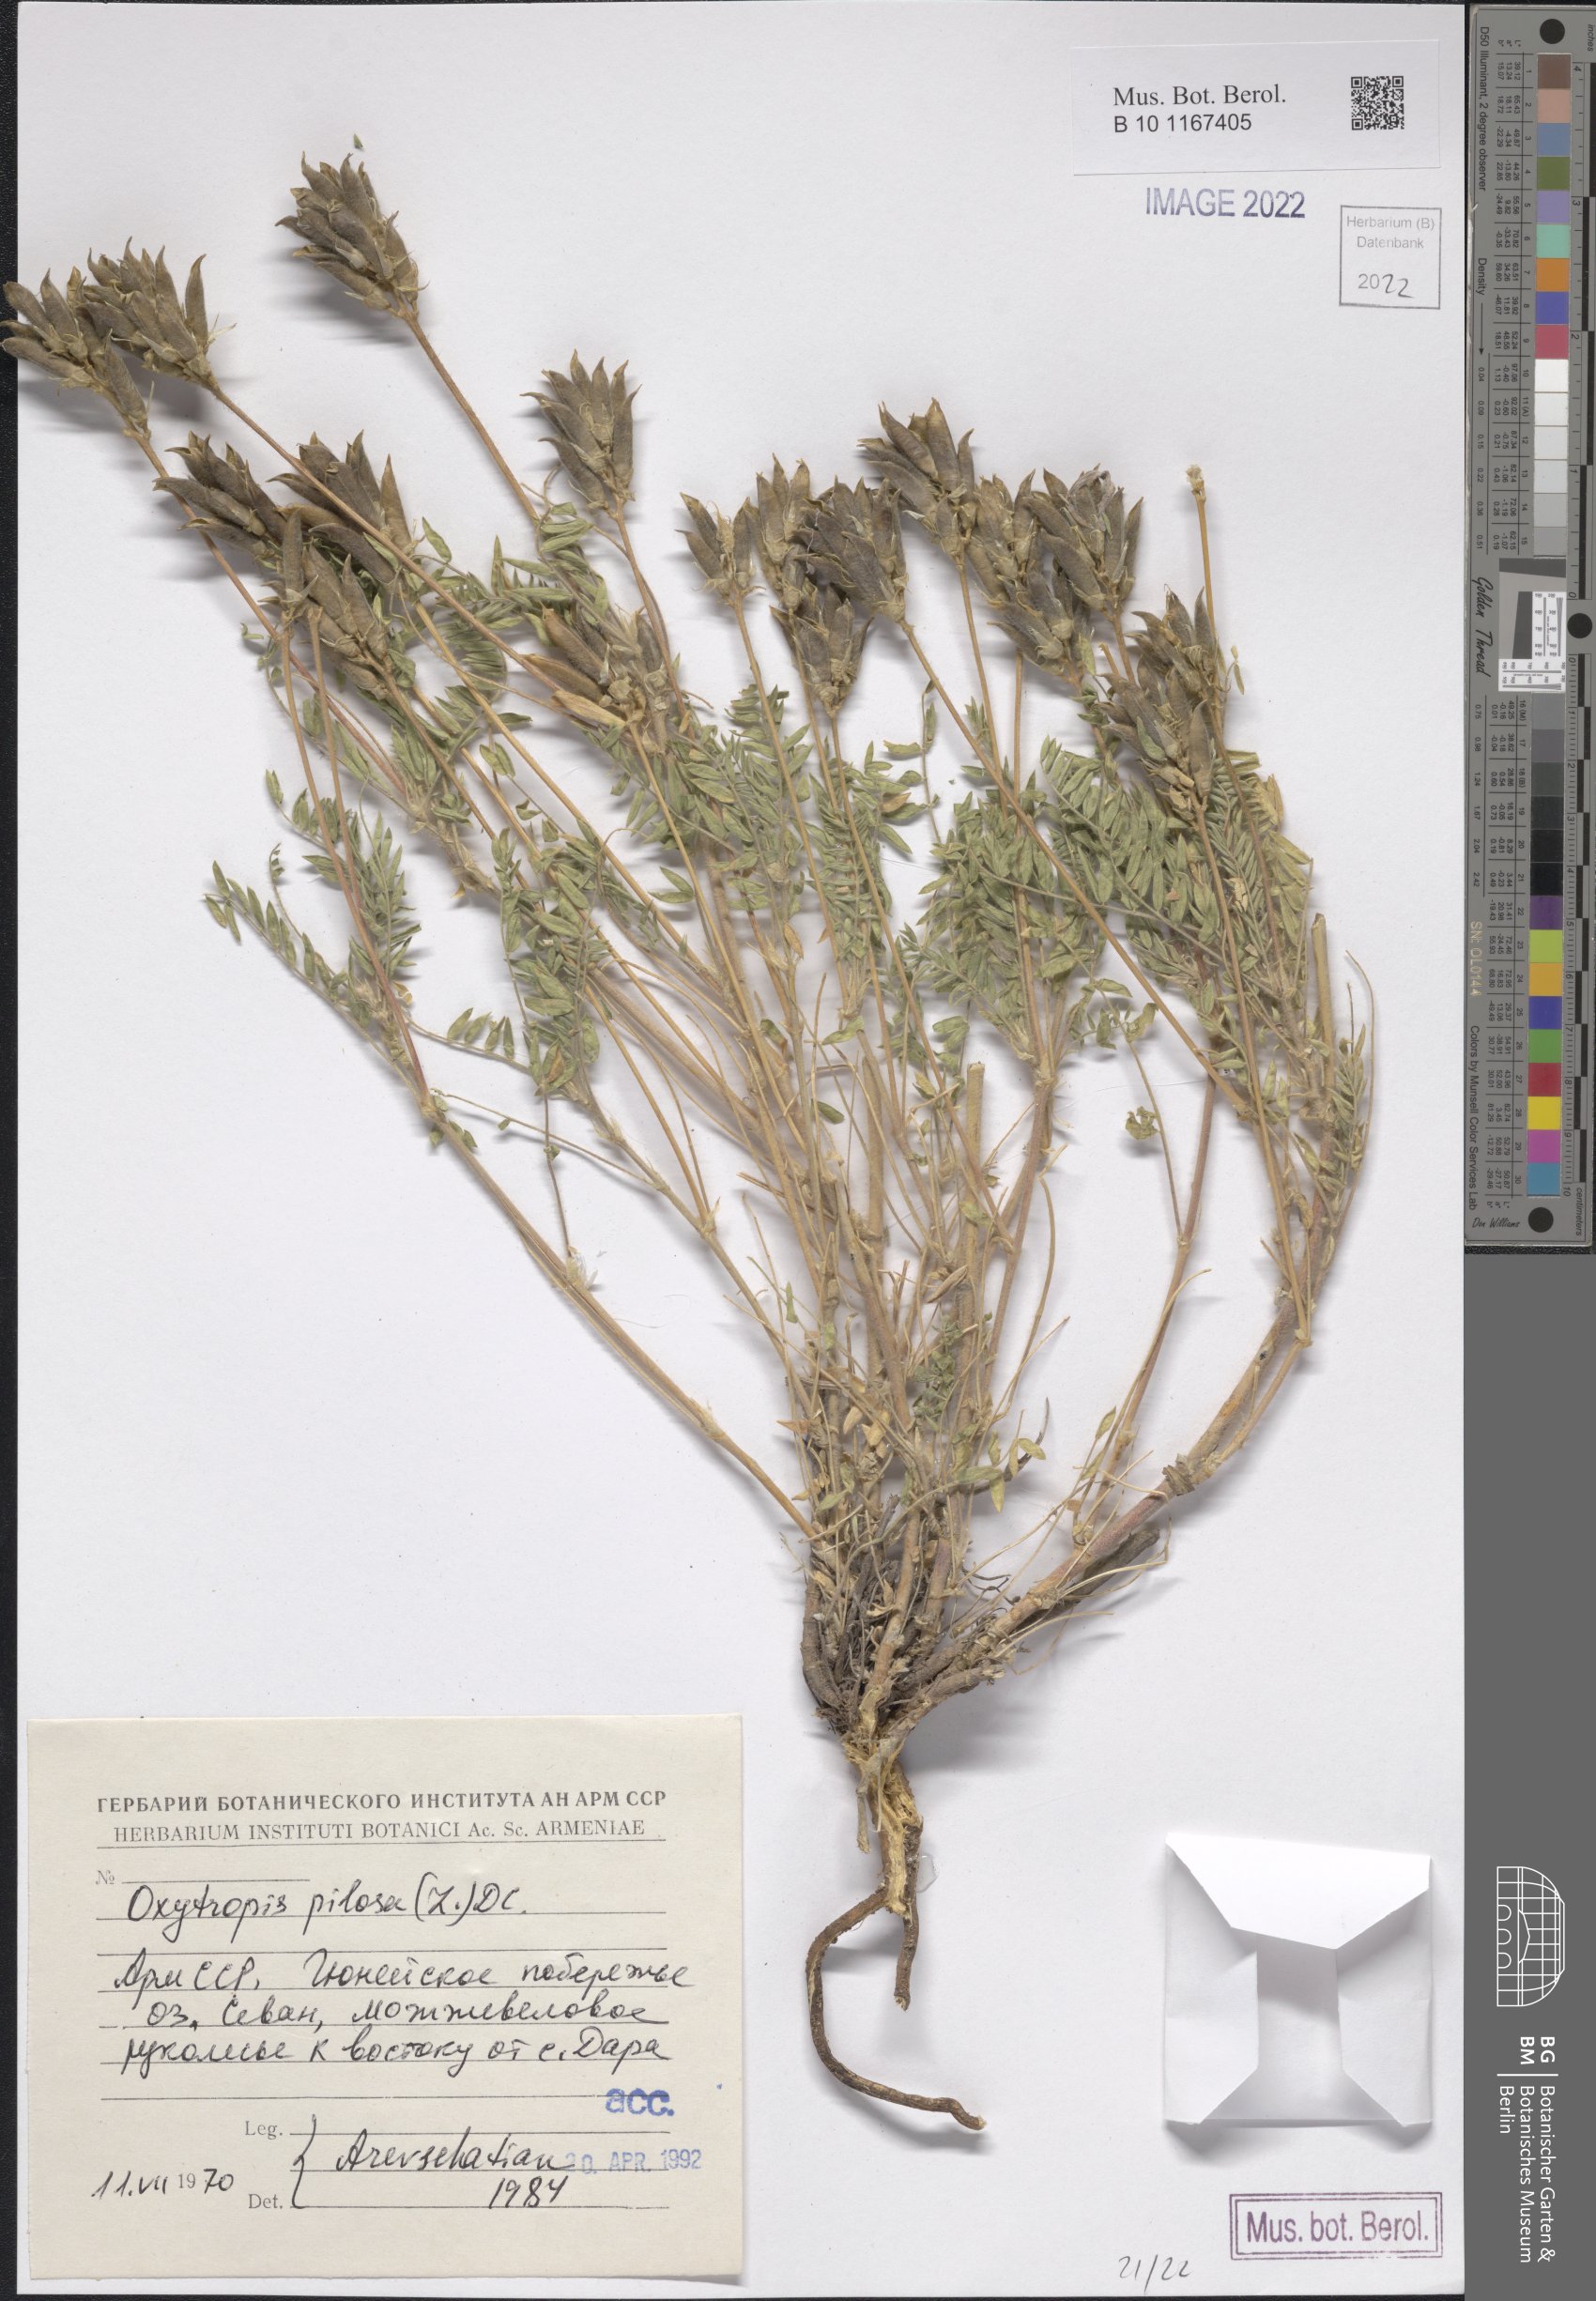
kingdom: Plantae
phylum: Tracheophyta
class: Magnoliopsida
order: Fabales
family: Fabaceae
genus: Oxytropis
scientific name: Oxytropis pilosa
